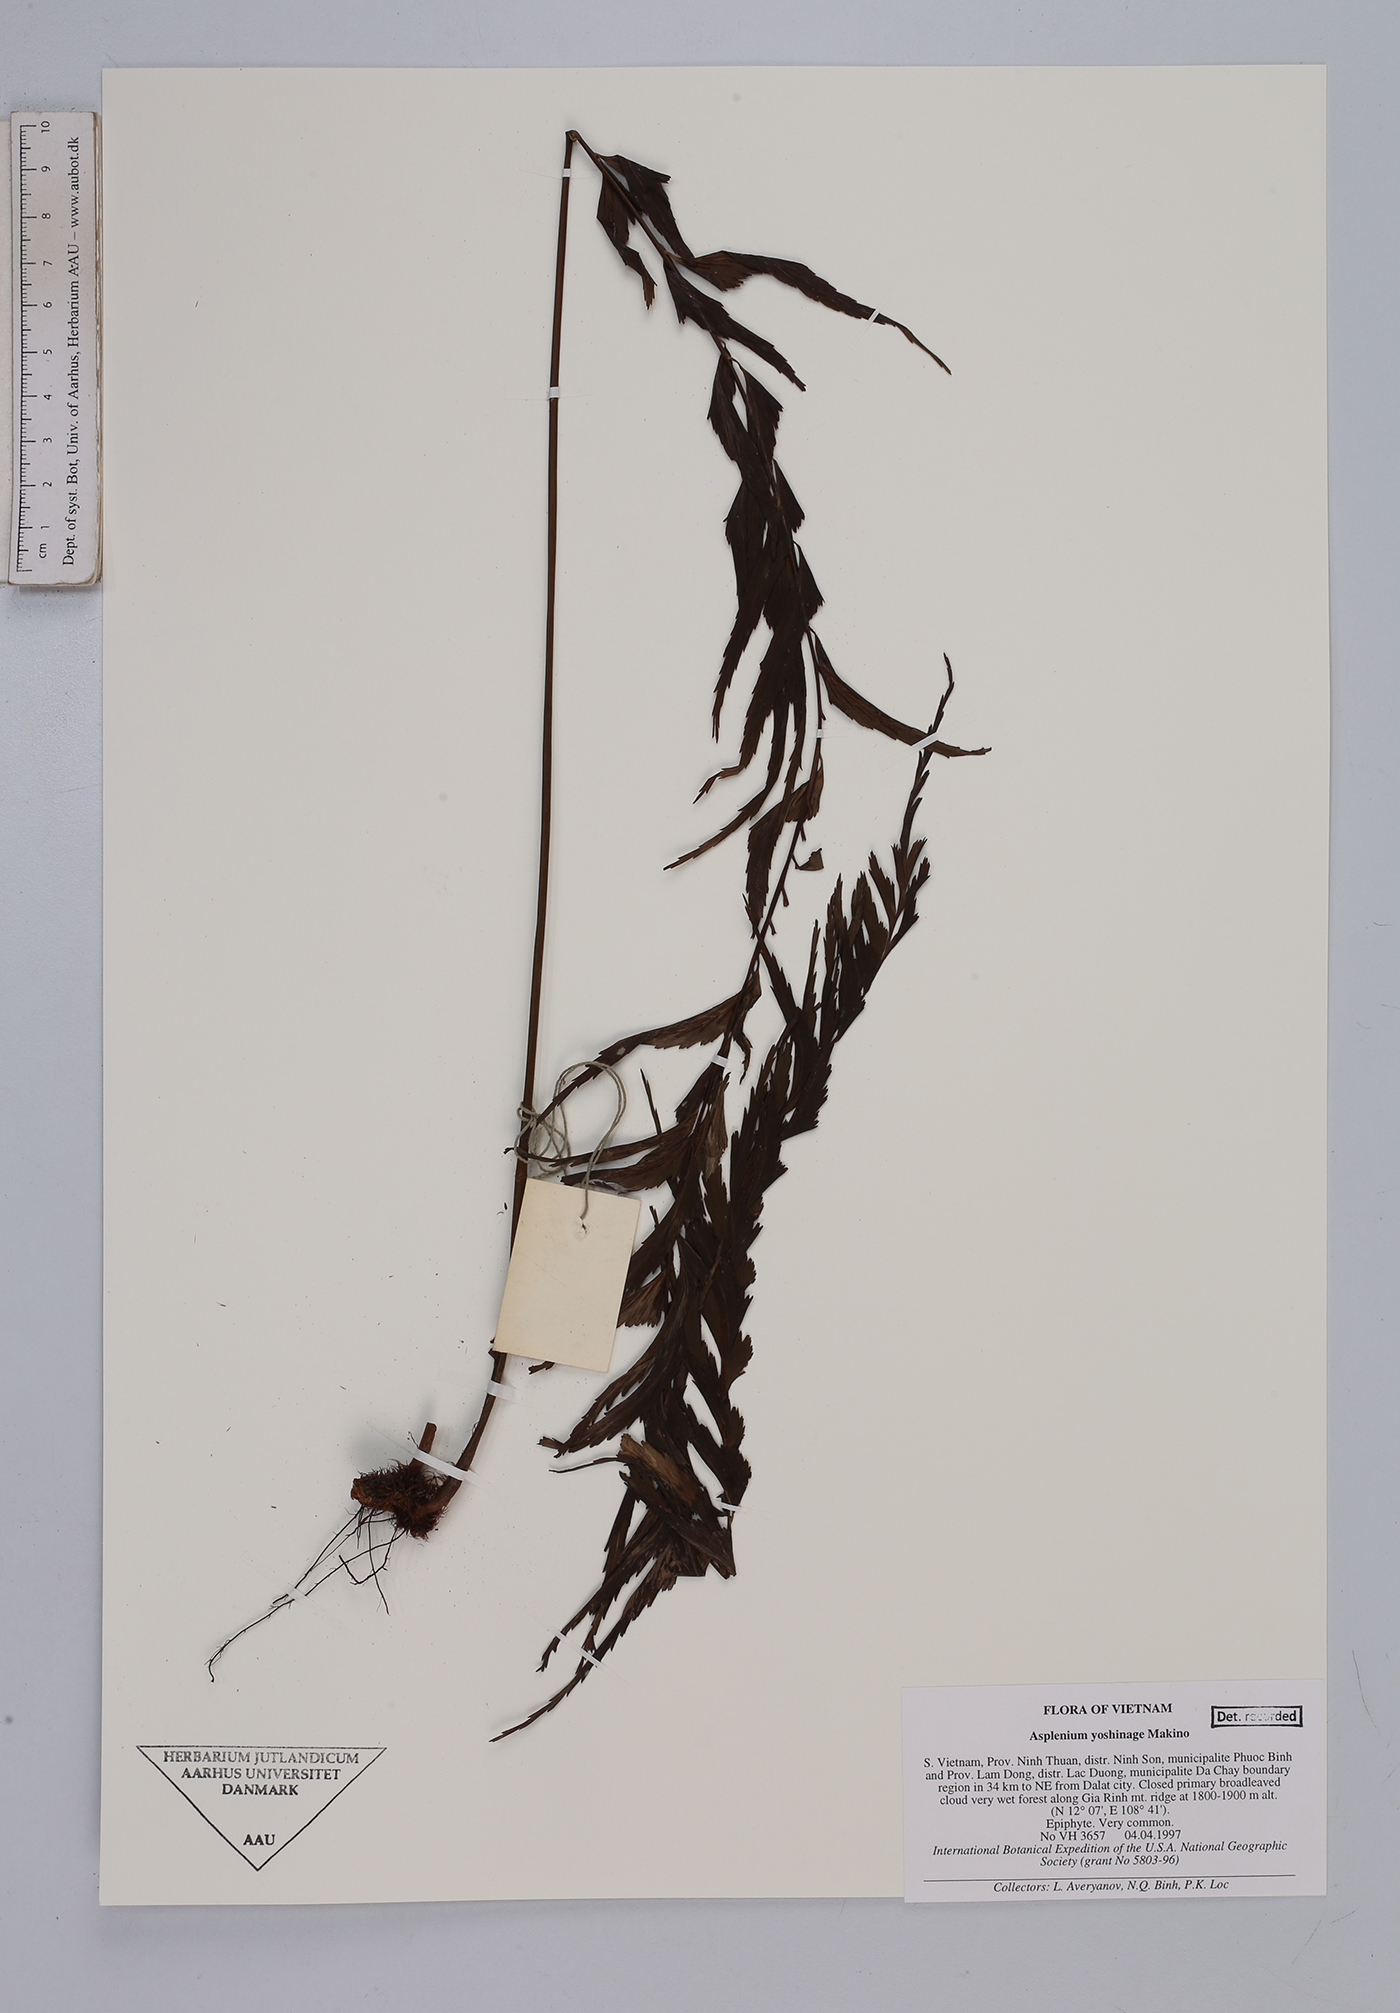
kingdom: Plantae
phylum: Tracheophyta
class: Polypodiopsida
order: Polypodiales
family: Aspleniaceae
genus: Asplenium
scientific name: Asplenium yoshinagae
